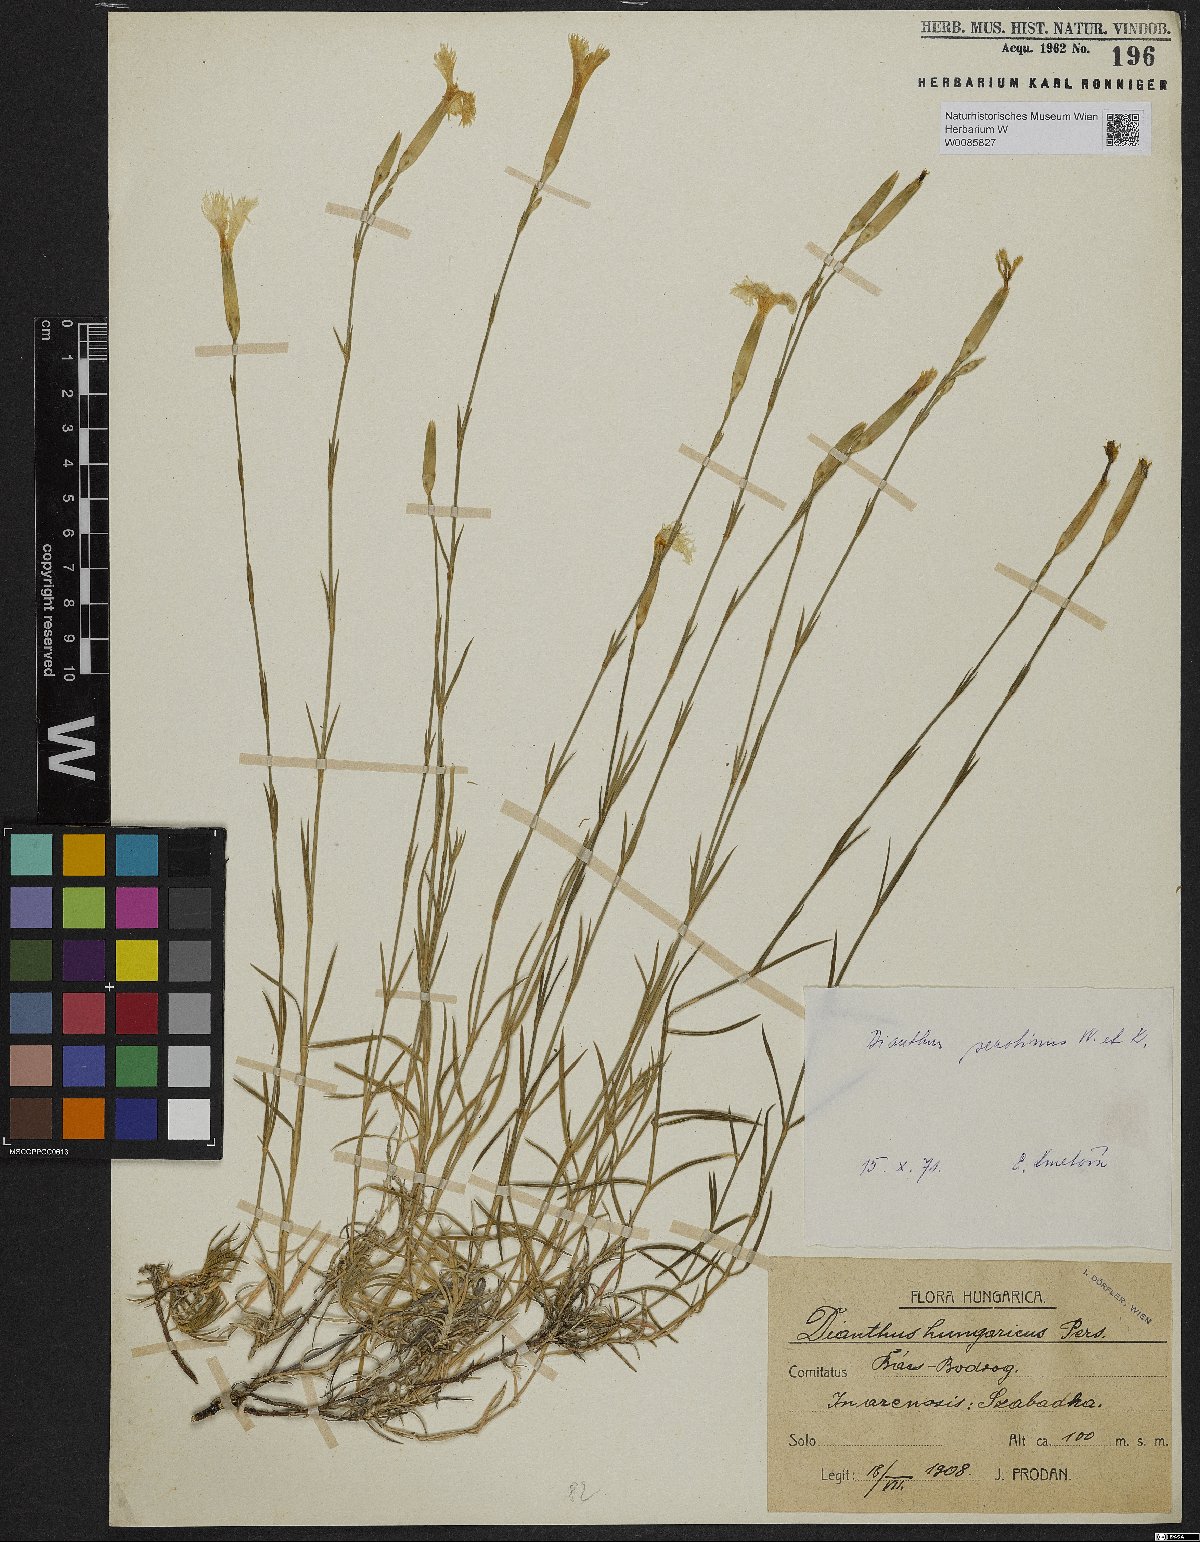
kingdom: Plantae
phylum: Tracheophyta
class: Magnoliopsida
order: Caryophyllales
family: Caryophyllaceae
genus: Dianthus
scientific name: Dianthus serotinus
